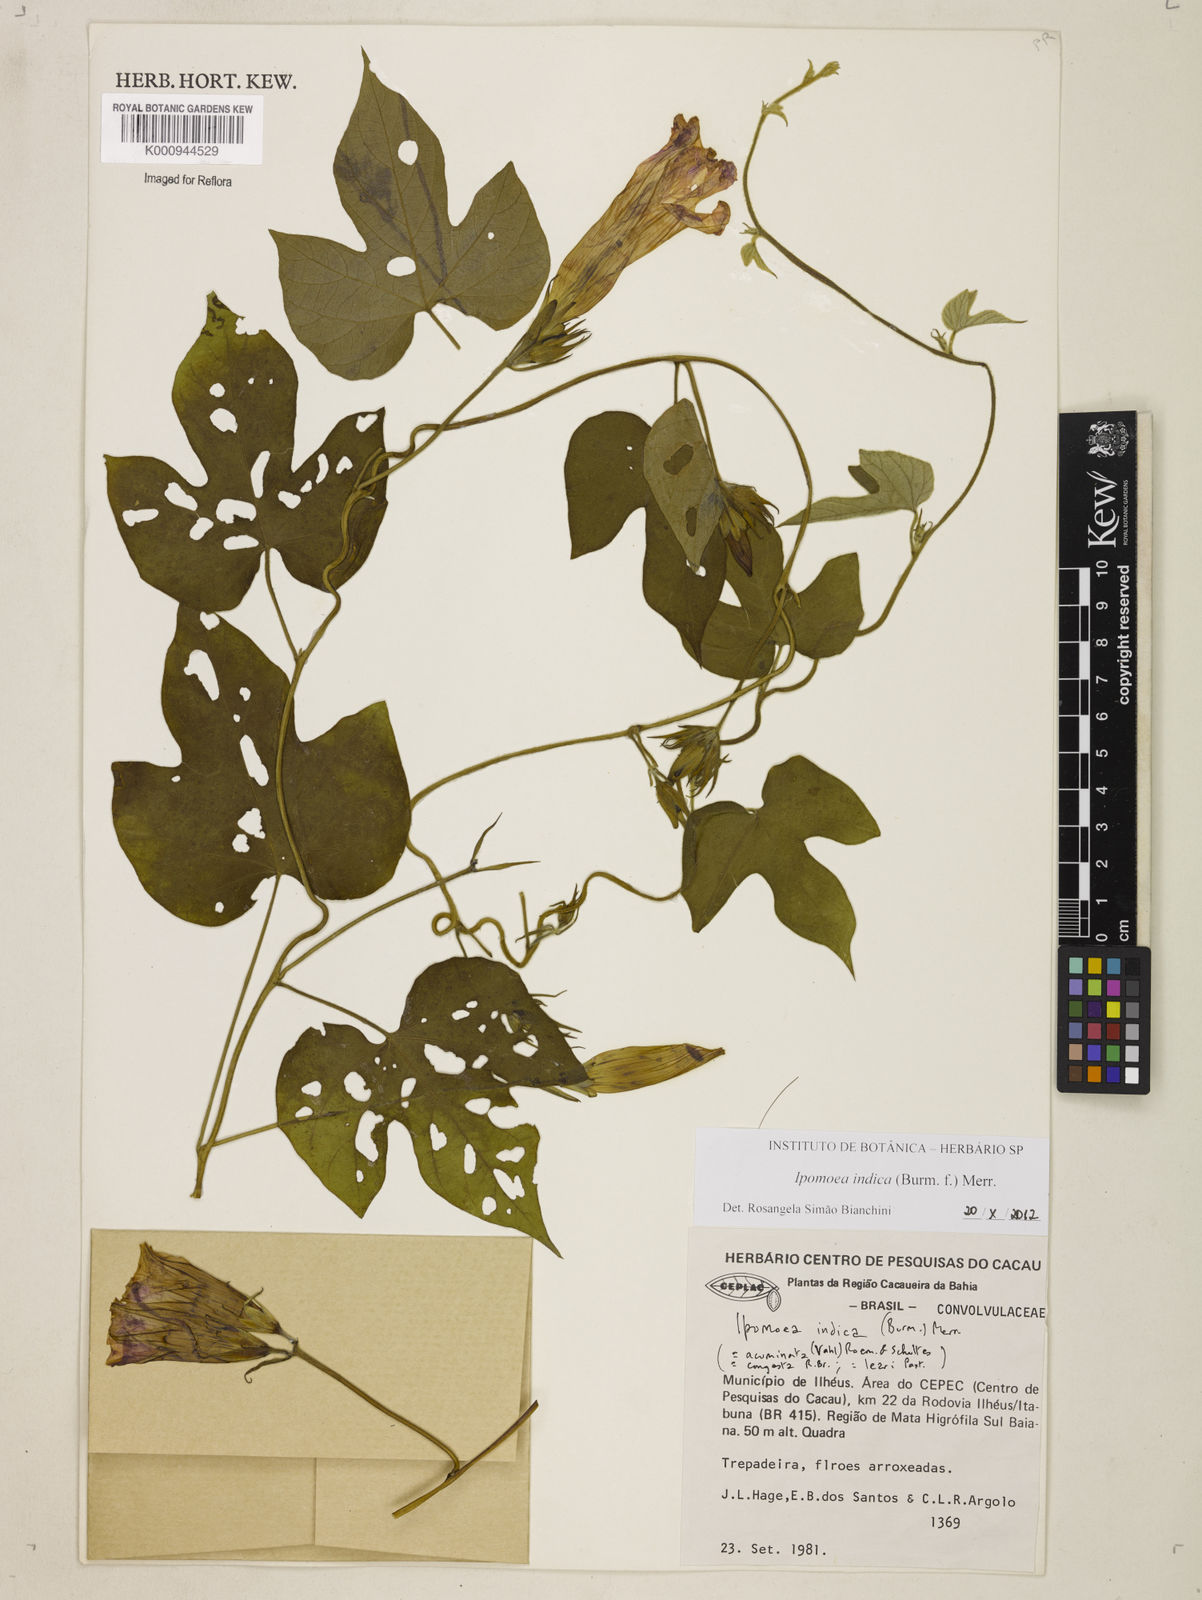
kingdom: Plantae
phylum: Tracheophyta
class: Magnoliopsida
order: Solanales
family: Convolvulaceae
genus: Ipomoea
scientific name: Ipomoea indica
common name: Blue dawnflower
